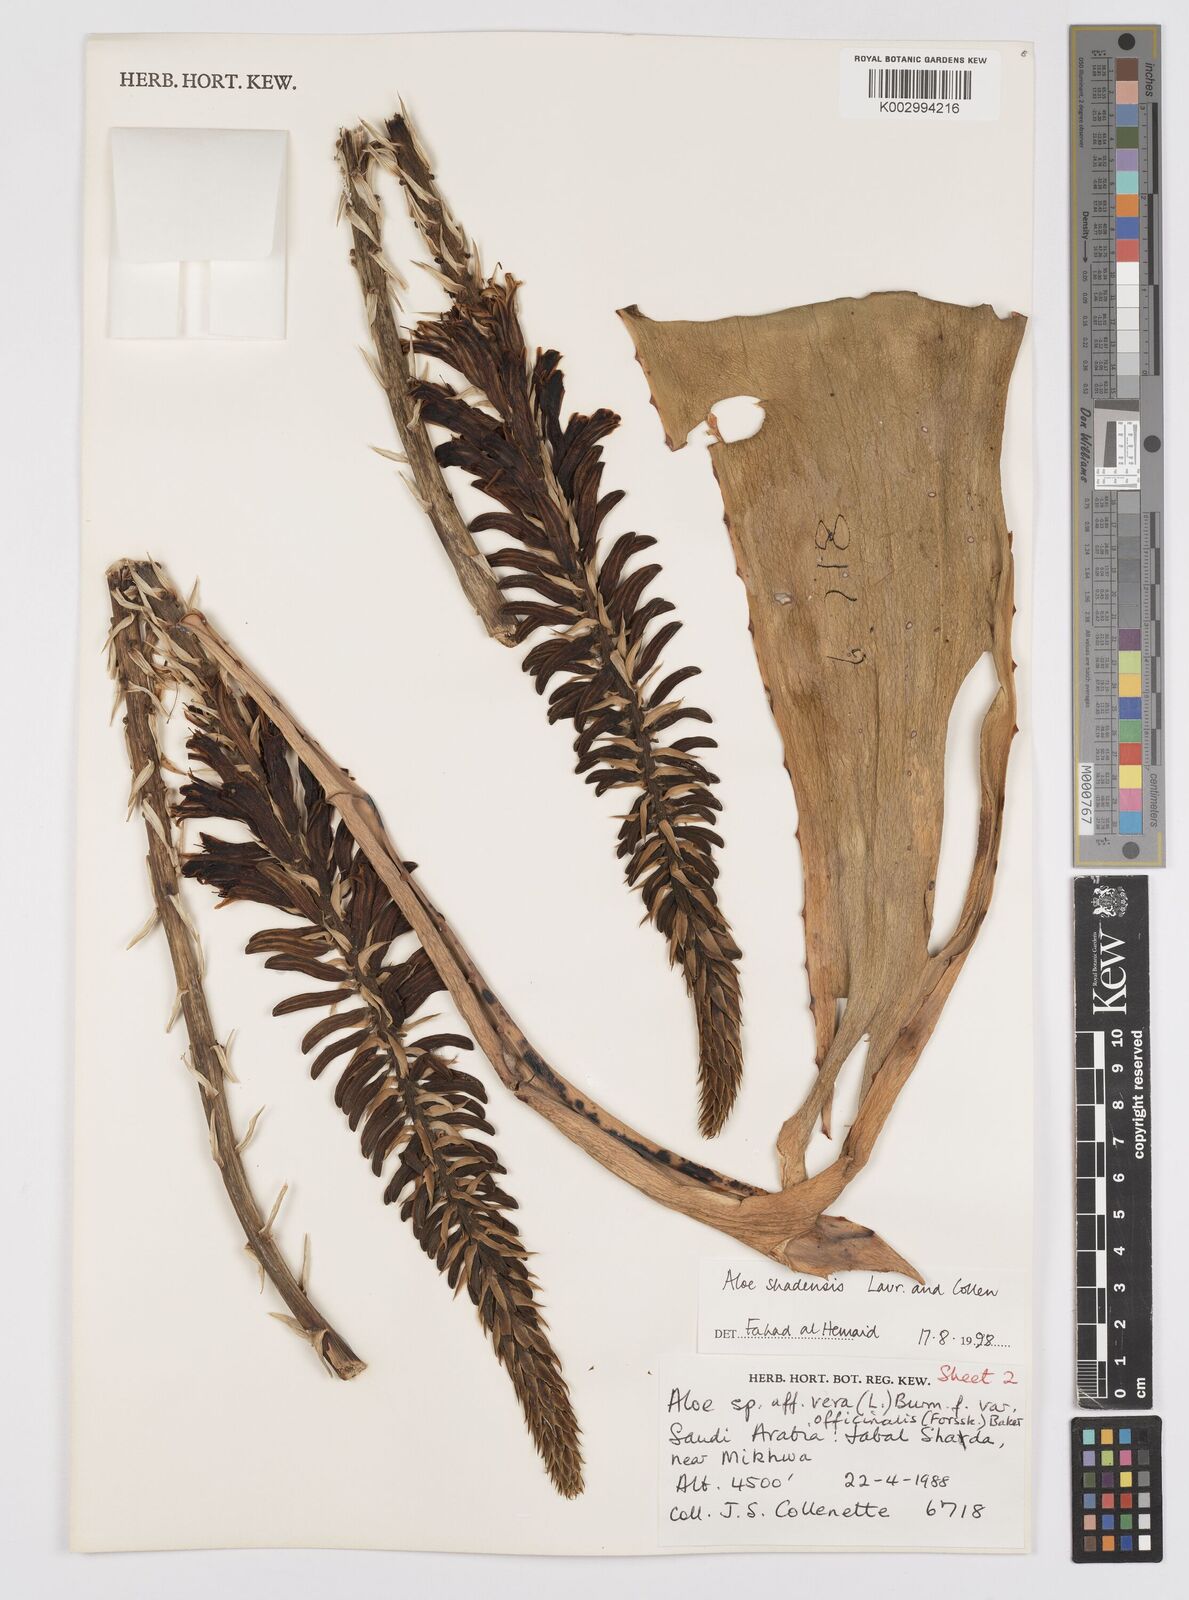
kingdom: Plantae
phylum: Tracheophyta
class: Liliopsida
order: Asparagales
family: Asphodelaceae
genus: Aloe
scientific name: Aloe shadensis
